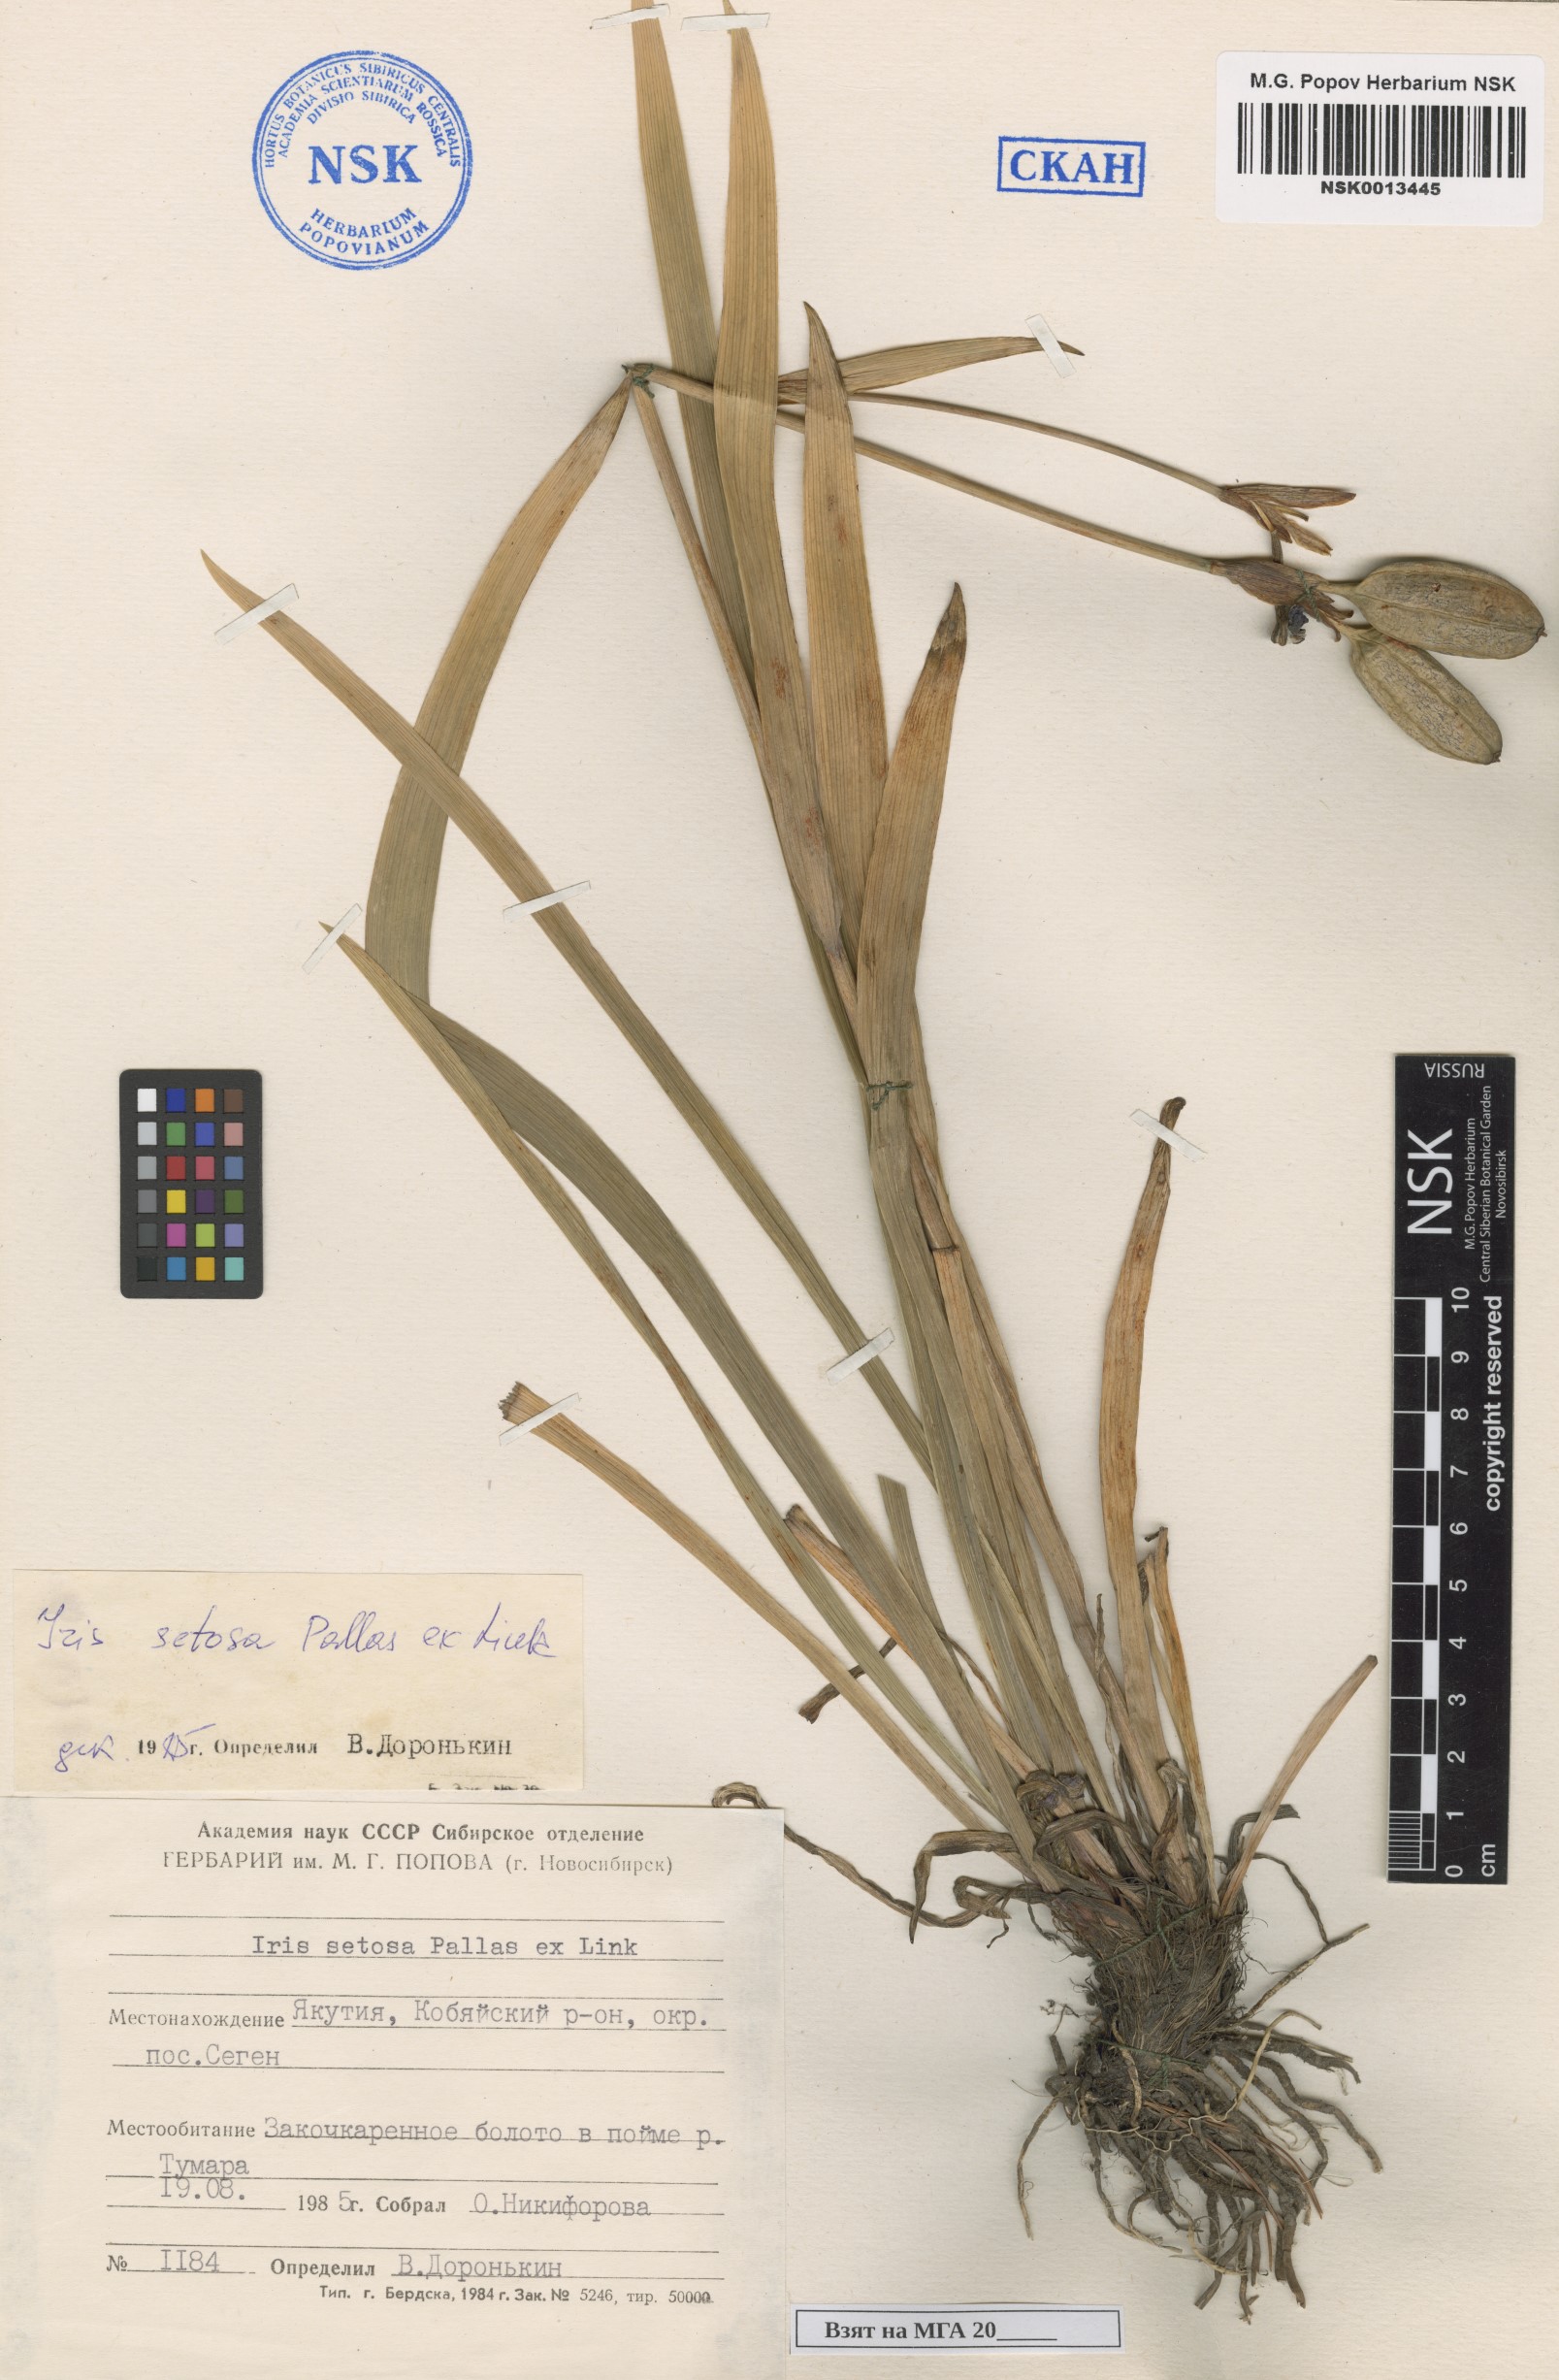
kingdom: Plantae
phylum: Tracheophyta
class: Liliopsida
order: Asparagales
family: Iridaceae
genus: Iris
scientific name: Iris setosa
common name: Arctic blue flag
